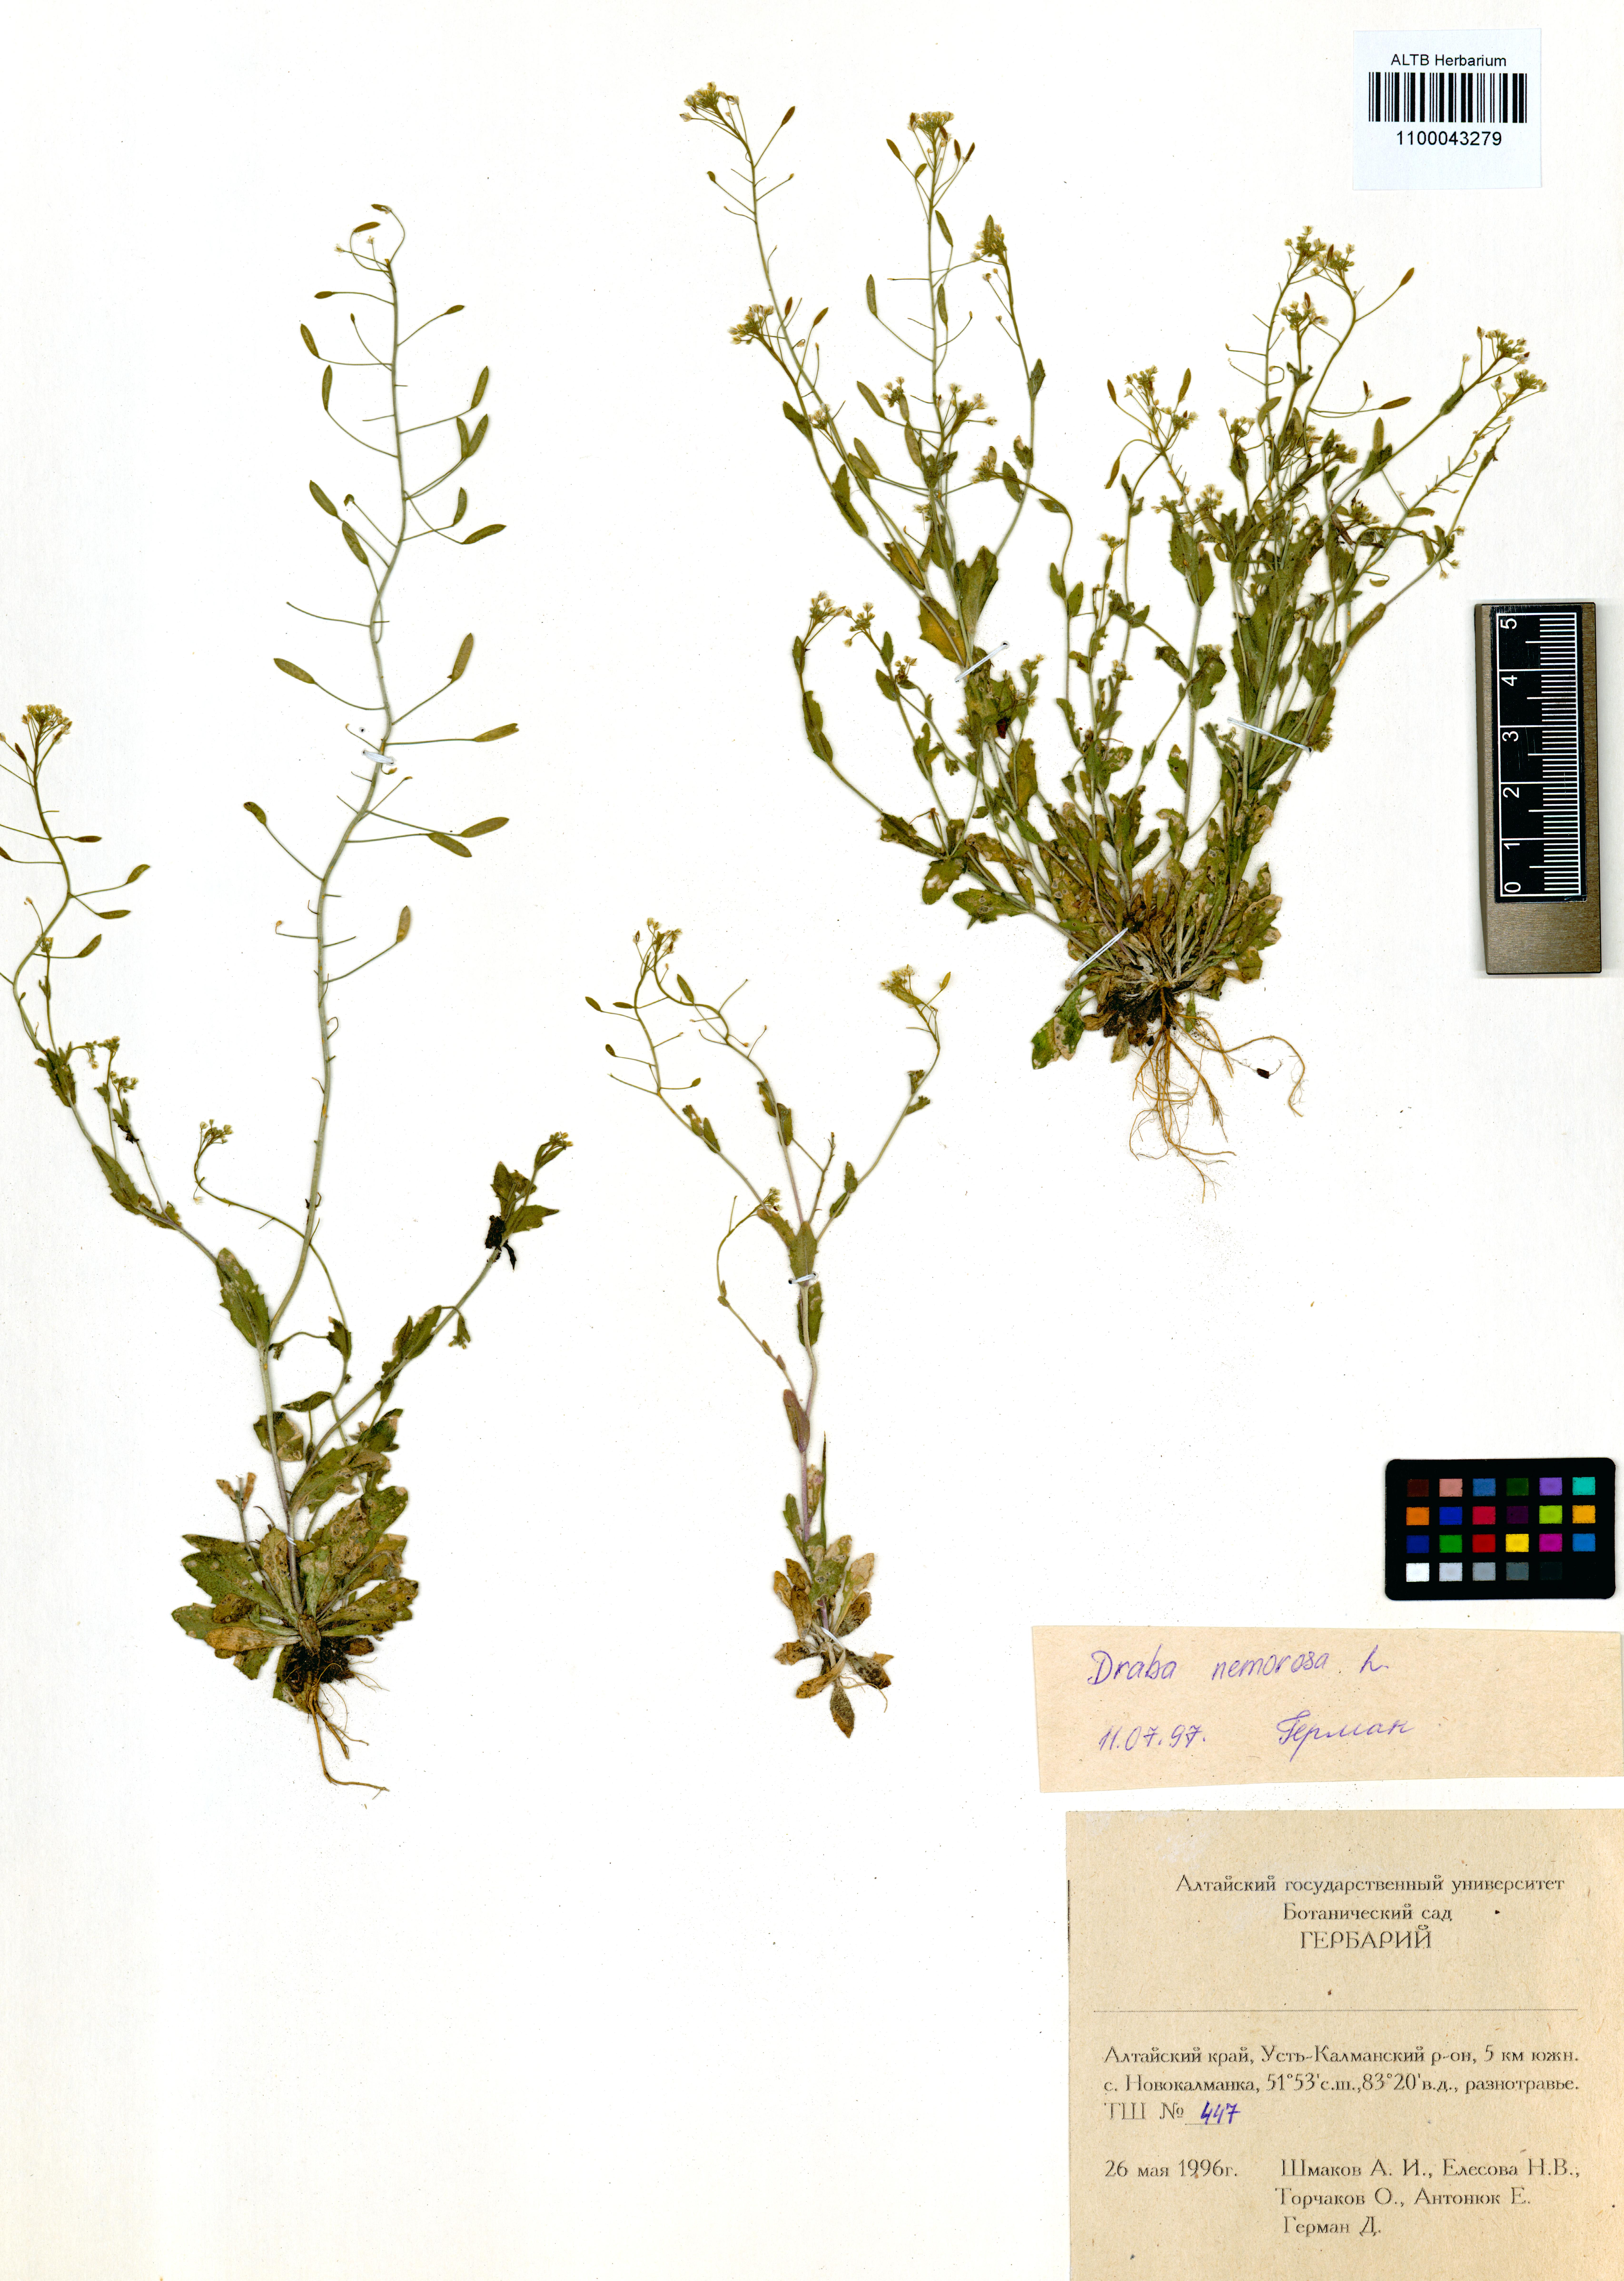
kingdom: Plantae
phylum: Tracheophyta
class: Magnoliopsida
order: Brassicales
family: Brassicaceae
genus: Draba
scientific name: Draba nemorosa
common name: Wood whitlow-grass
